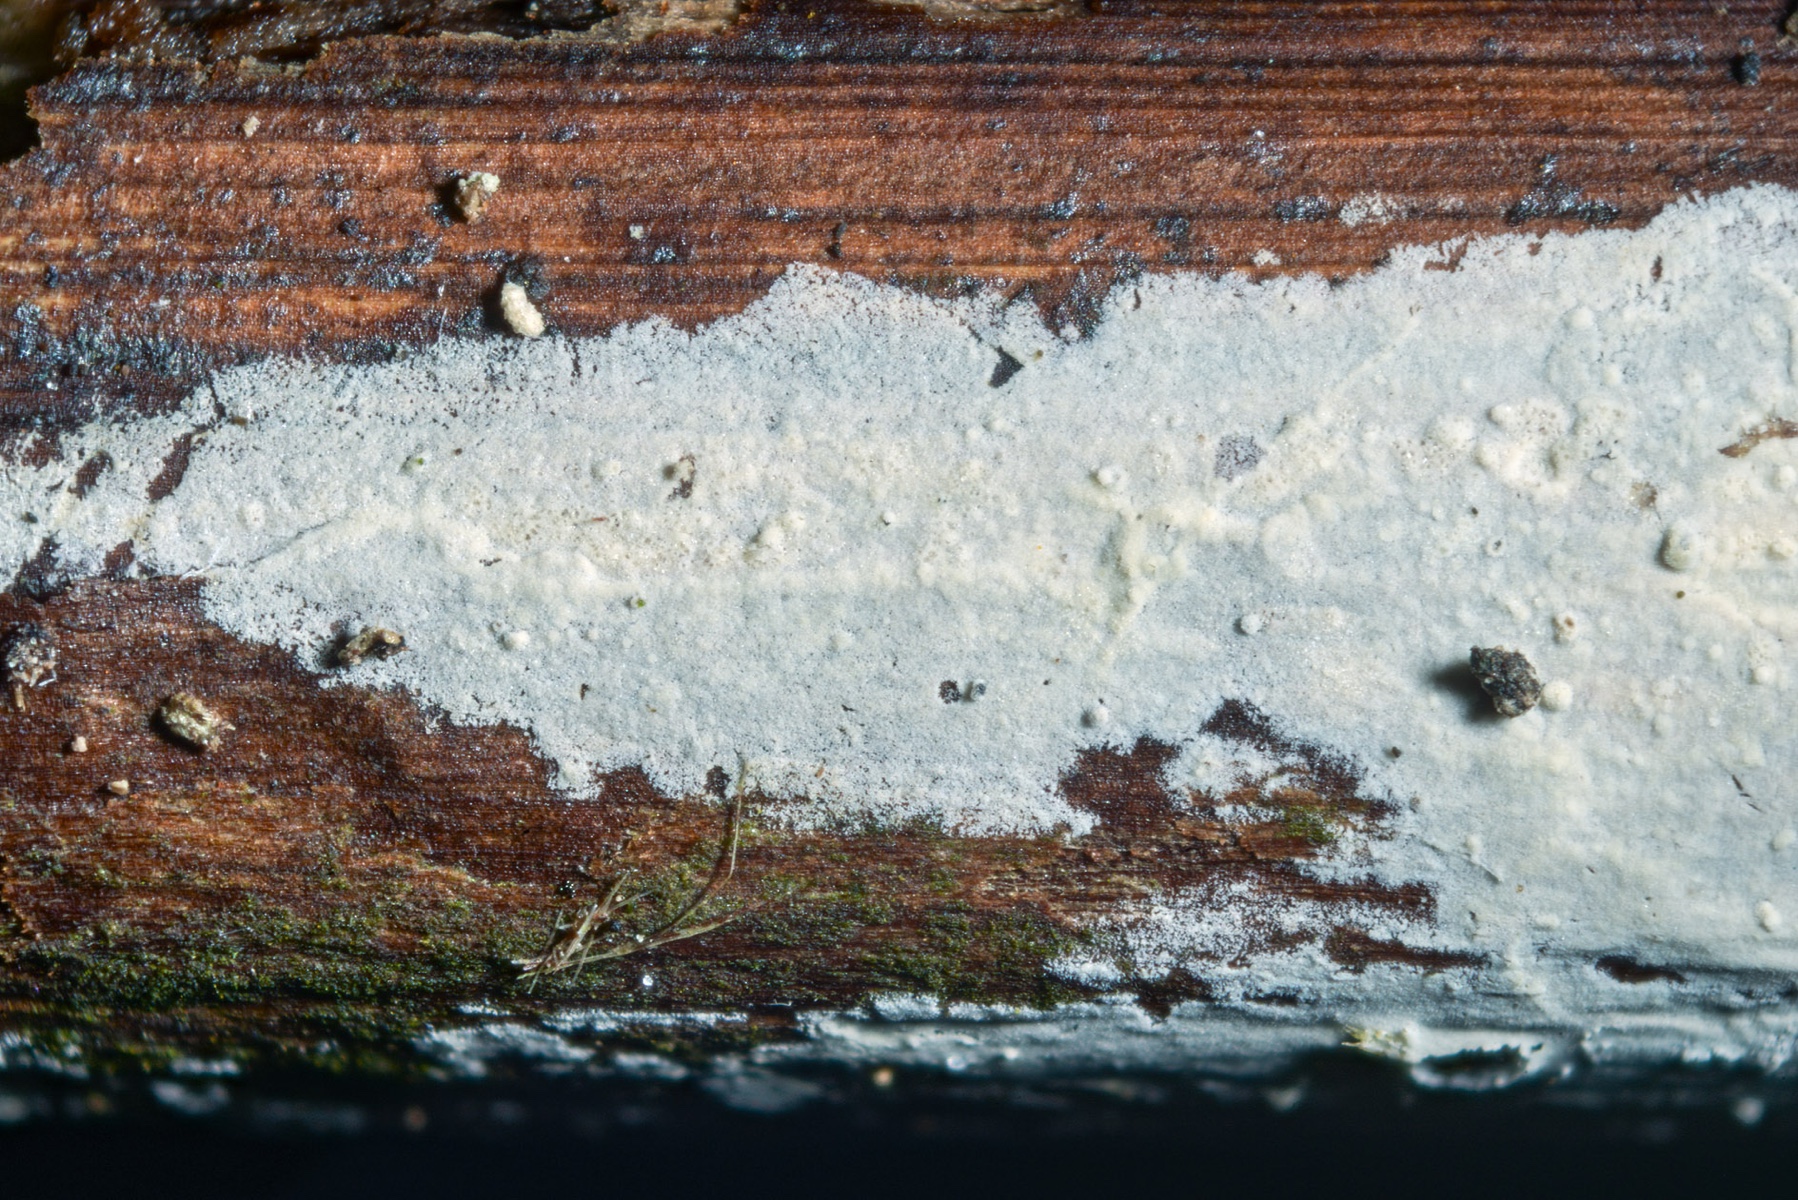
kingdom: Fungi
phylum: Basidiomycota
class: Agaricomycetes
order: Trechisporales
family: Hydnodontaceae
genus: Brevicellicium
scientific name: Brevicellicium olivascens
